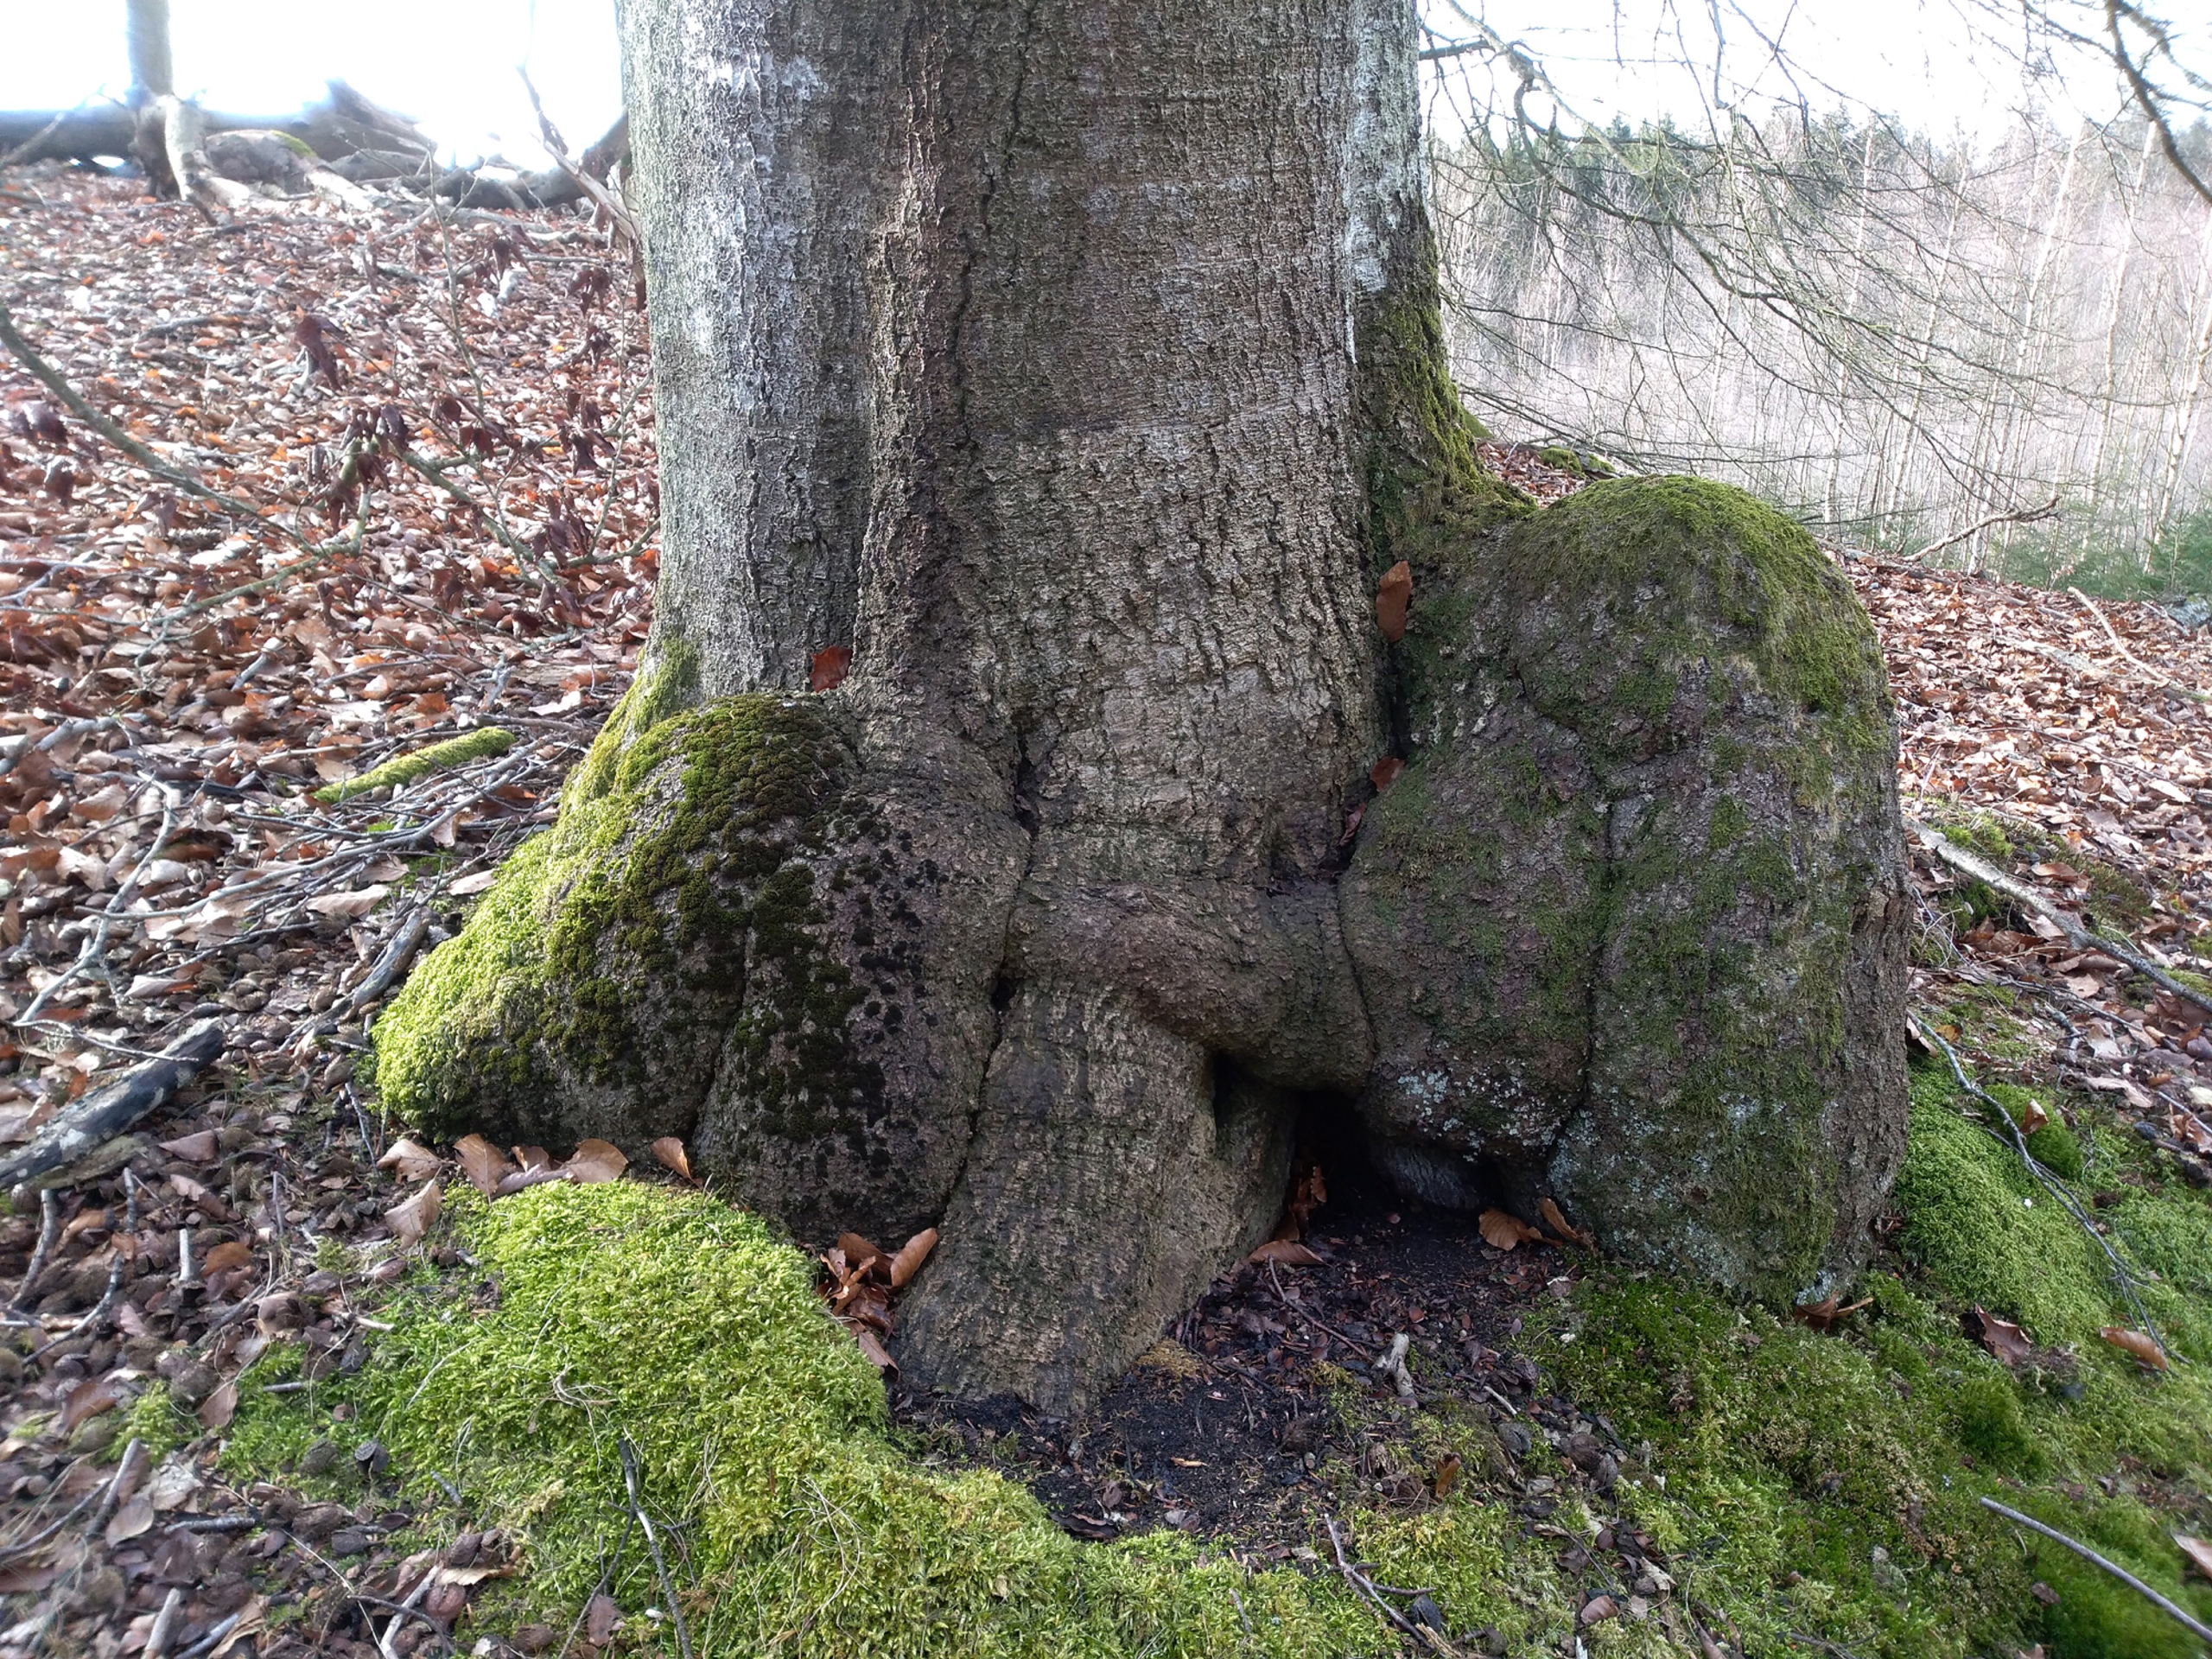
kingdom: Plantae
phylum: Bryophyta
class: Bryopsida
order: Orthotrichales
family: Orthotrichaceae
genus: Zygodon
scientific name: Zygodon rupestris
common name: Almindelig køllemos
